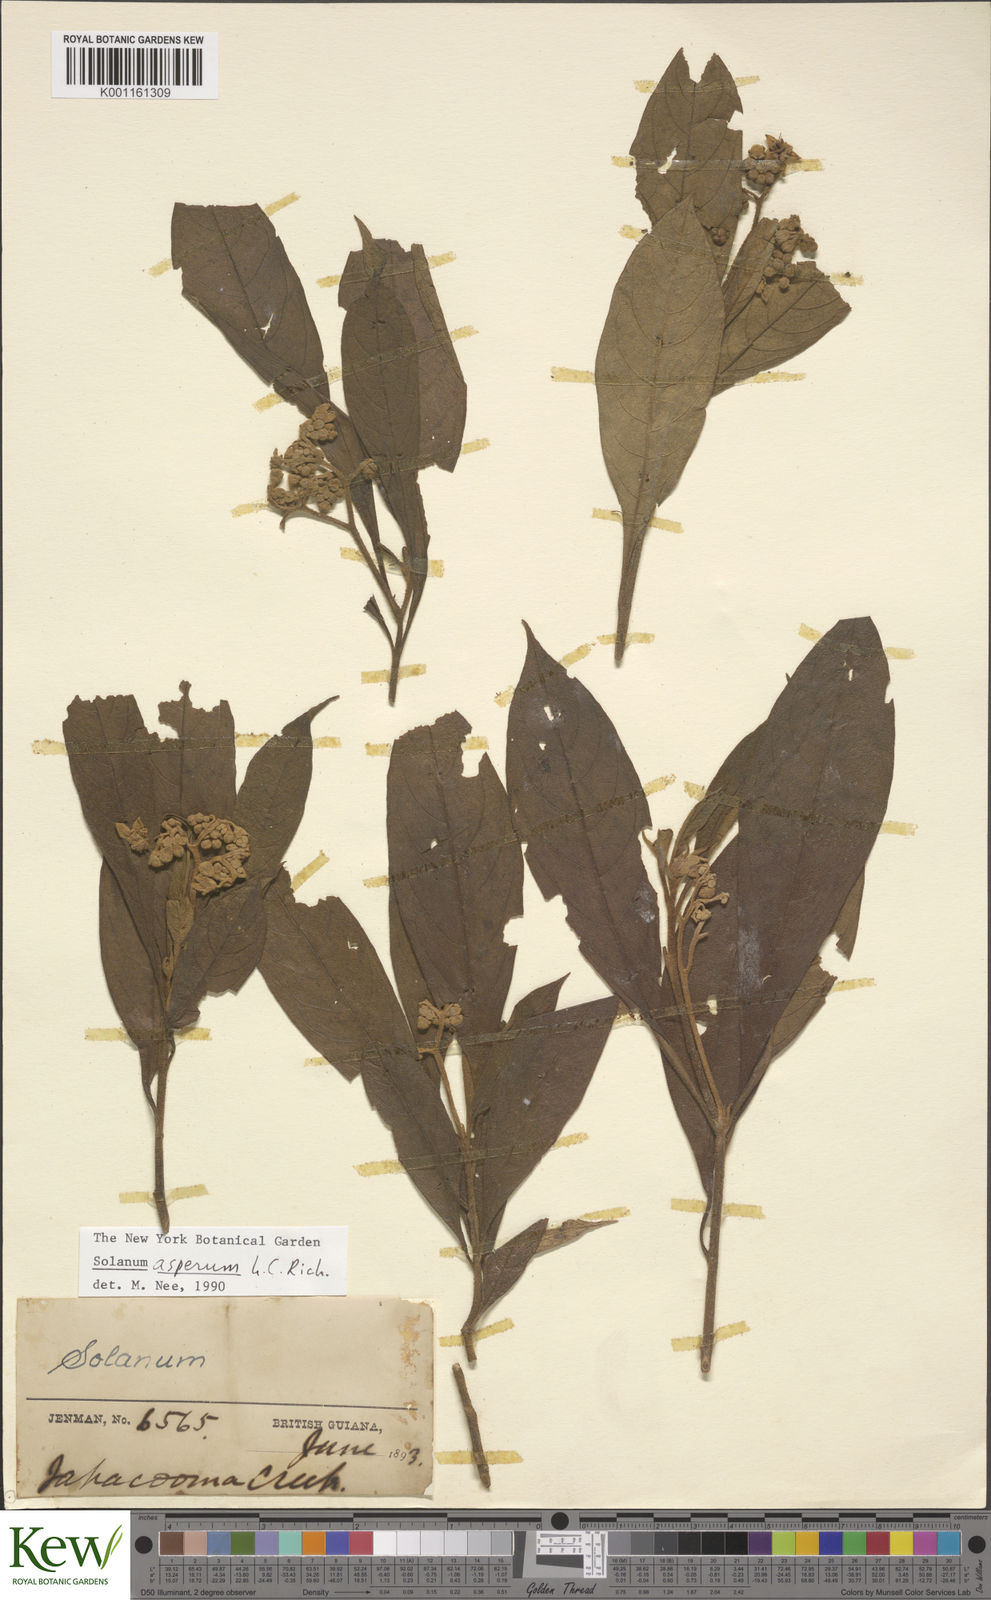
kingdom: Plantae
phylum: Tracheophyta
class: Magnoliopsida
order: Solanales
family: Solanaceae
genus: Solanum
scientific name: Solanum asperum
